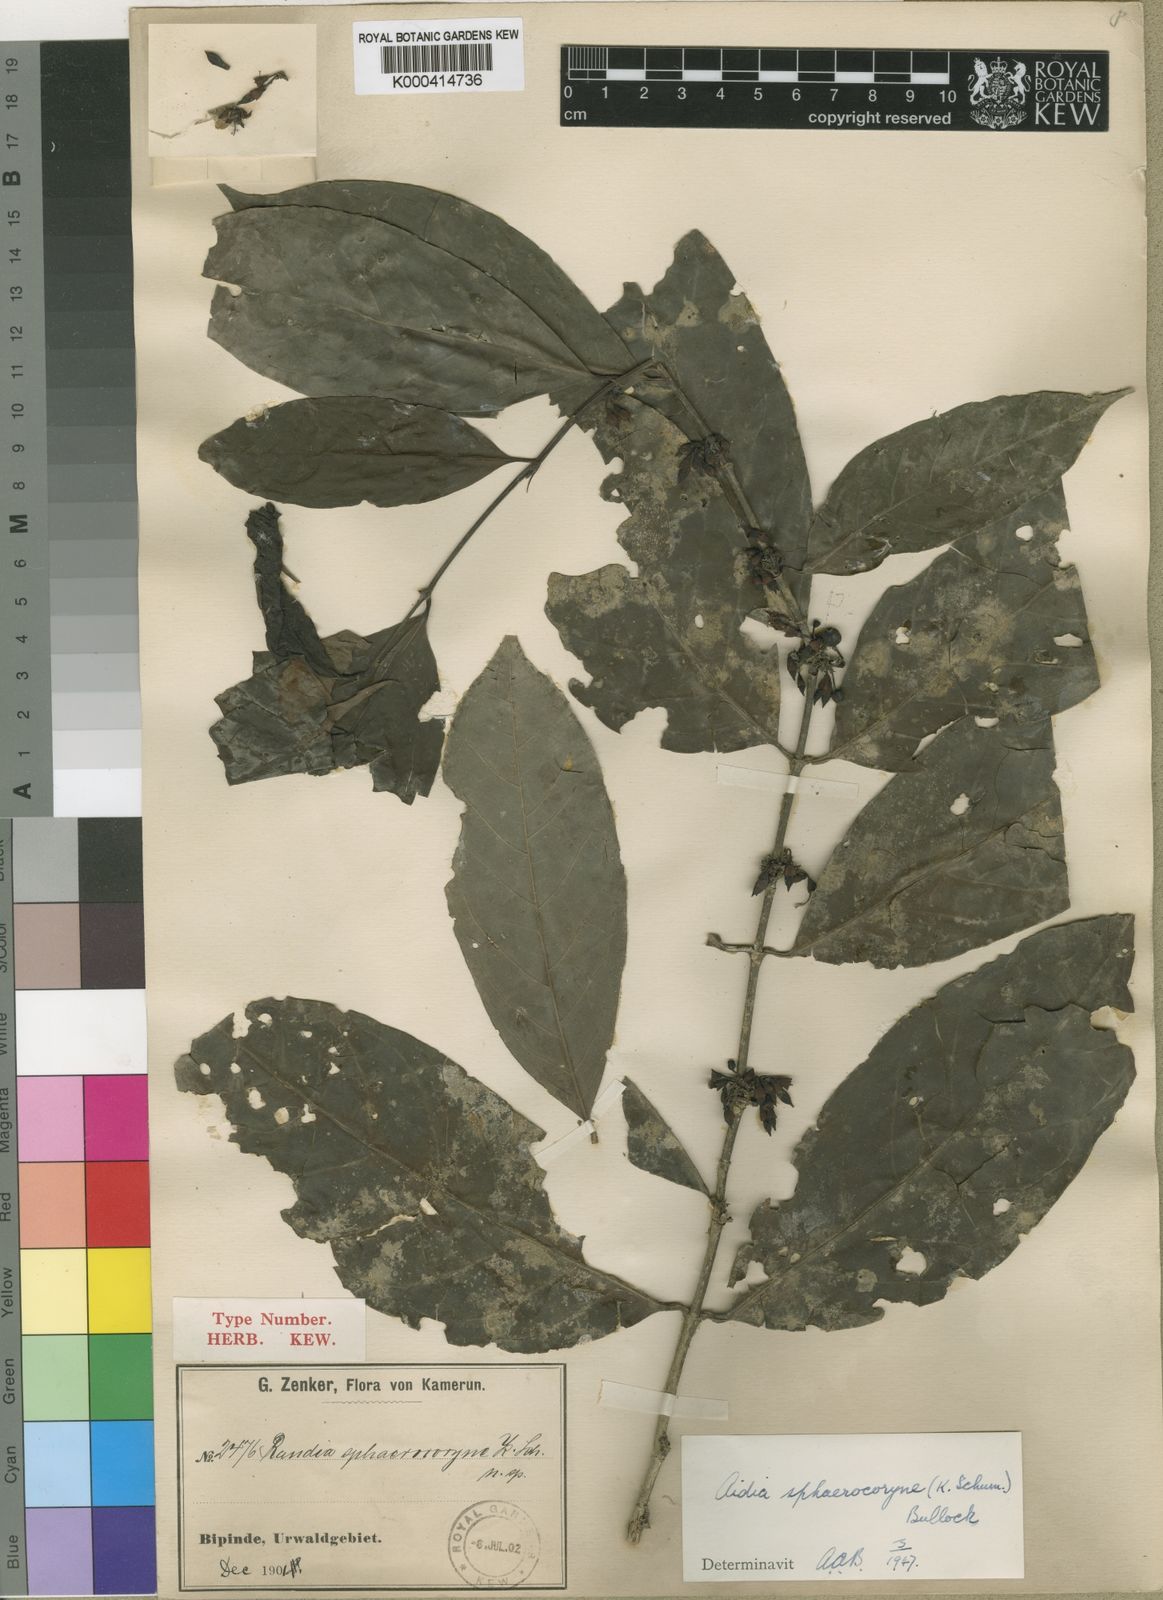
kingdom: Plantae
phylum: Tracheophyta
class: Magnoliopsida
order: Gentianales
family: Rubiaceae
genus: Aidia
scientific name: Aidia micrantha
